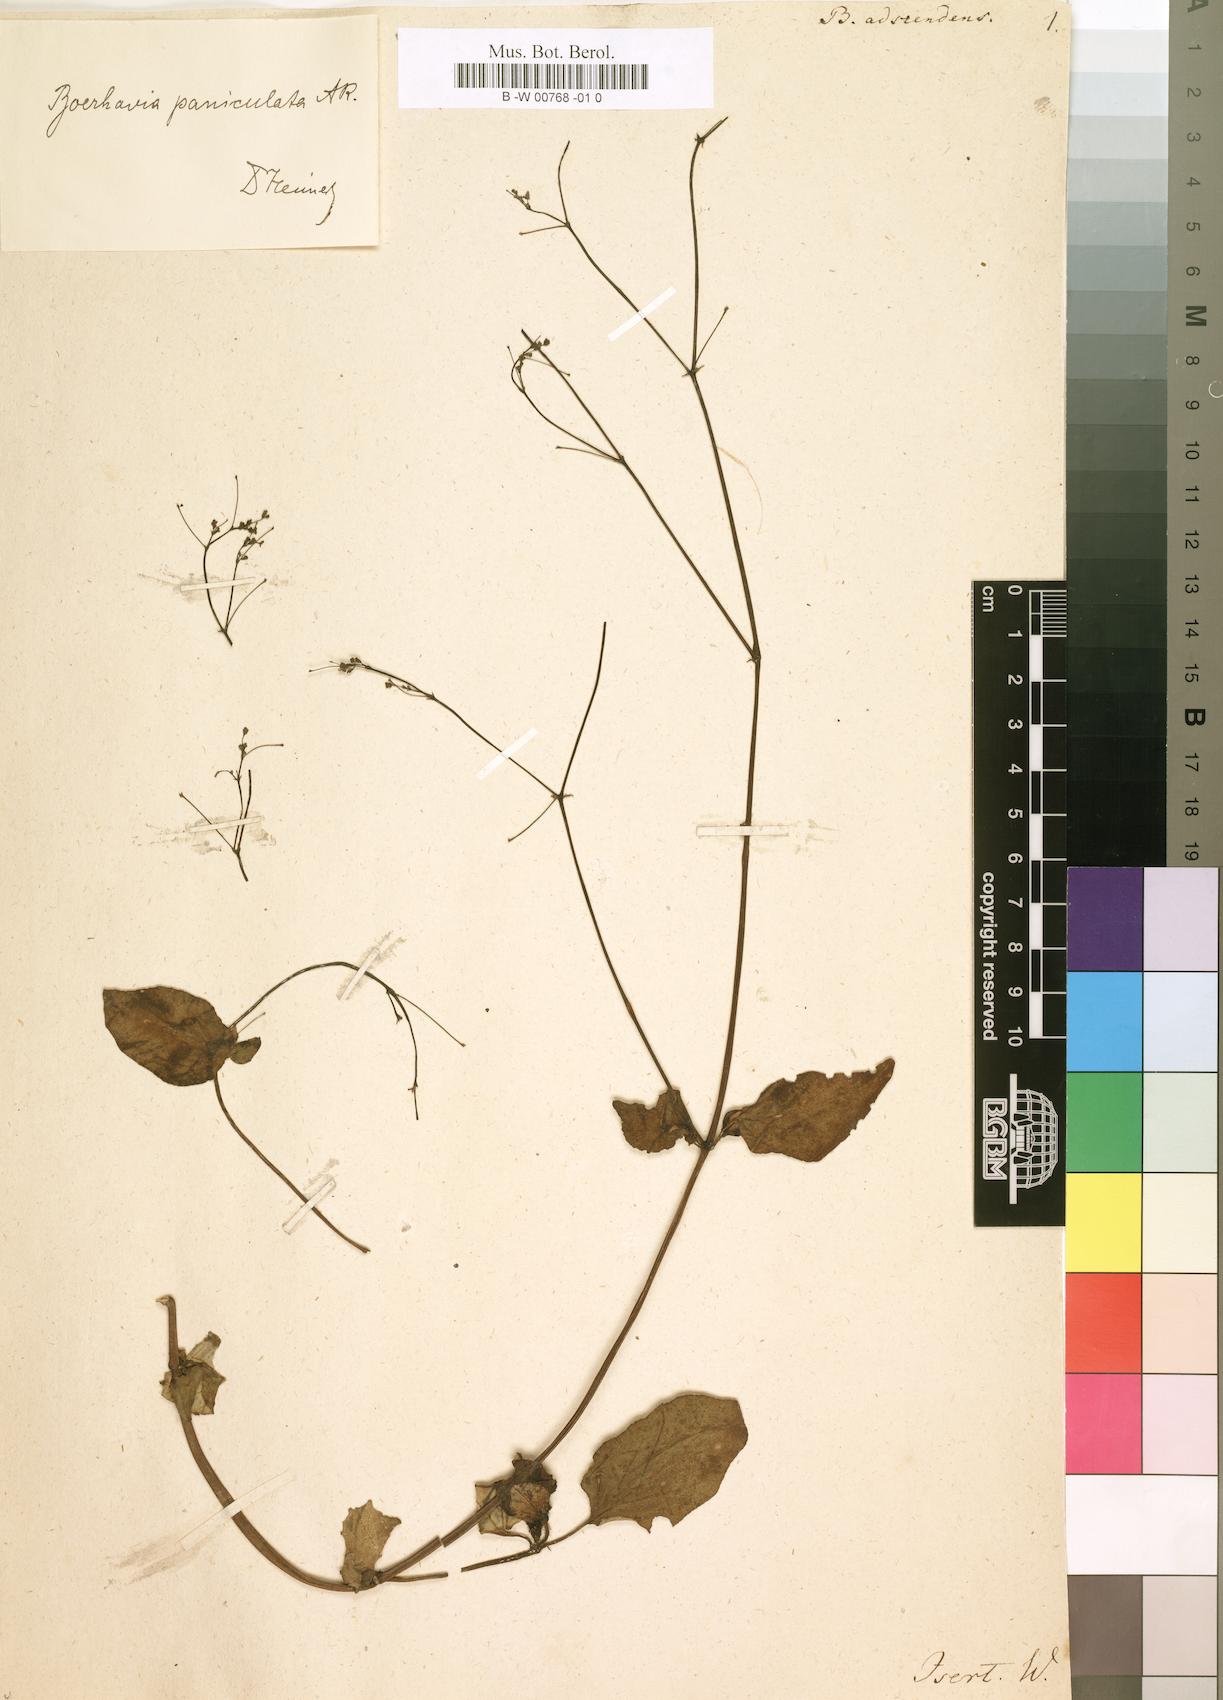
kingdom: Plantae
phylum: Tracheophyta
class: Magnoliopsida
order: Caryophyllales
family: Nyctaginaceae
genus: Boerhavia
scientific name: Boerhavia diffusa
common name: Red spiderling
